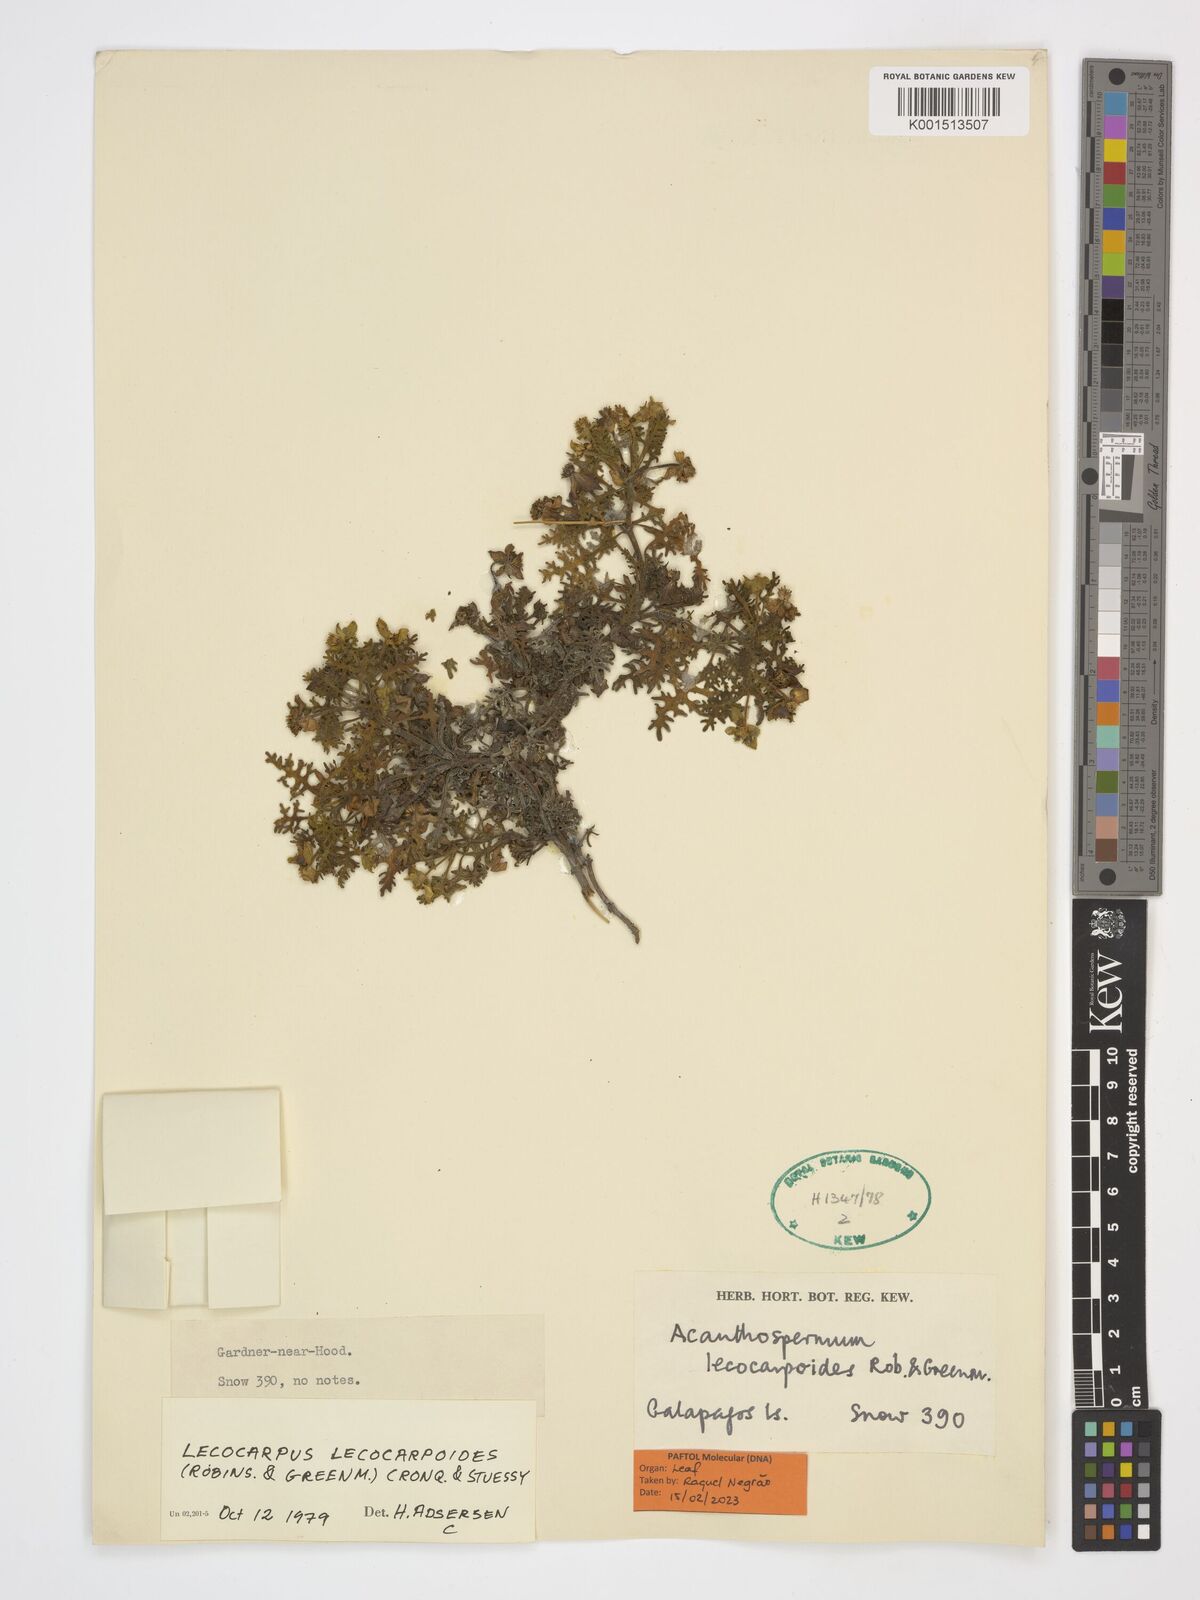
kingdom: Plantae
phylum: Tracheophyta
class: Magnoliopsida
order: Asterales
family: Asteraceae
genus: Lecocarpus
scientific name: Lecocarpus lecocarpoides
